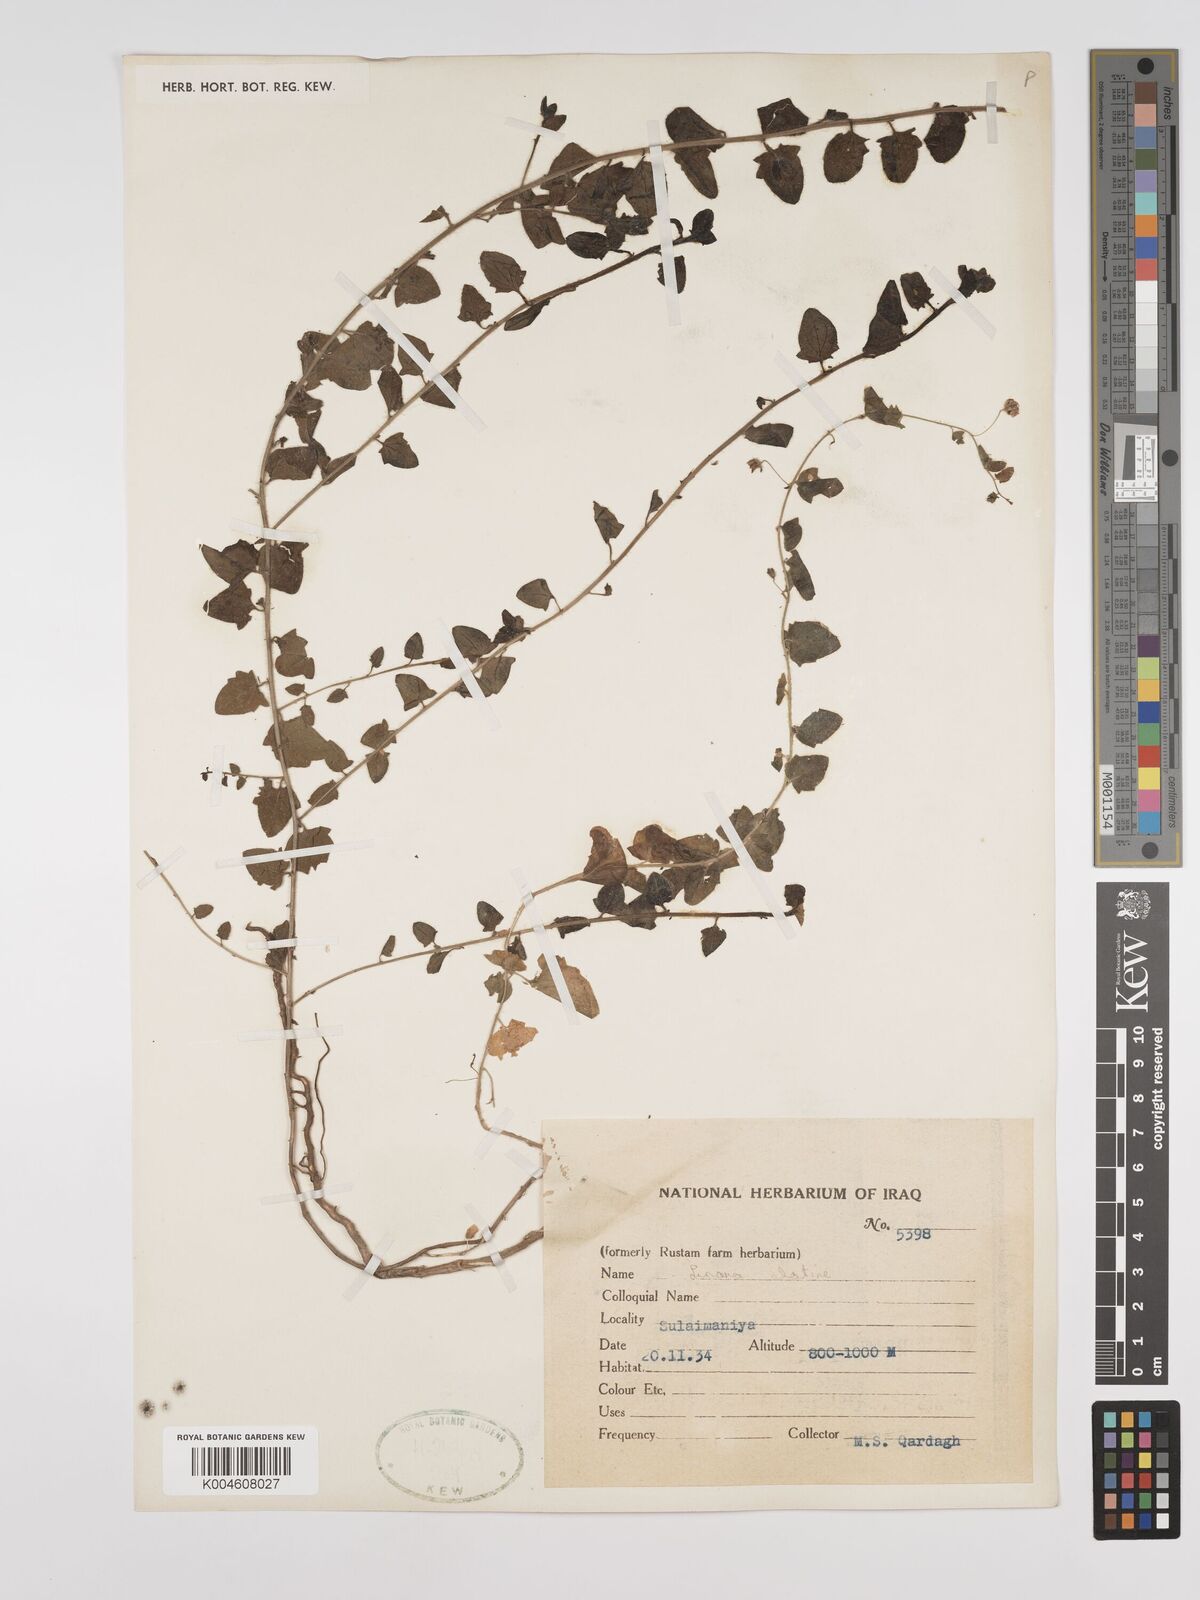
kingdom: Plantae
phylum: Tracheophyta
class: Magnoliopsida
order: Lamiales
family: Plantaginaceae
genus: Kickxia
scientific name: Kickxia elatine
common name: Sharp-leaved fluellen
